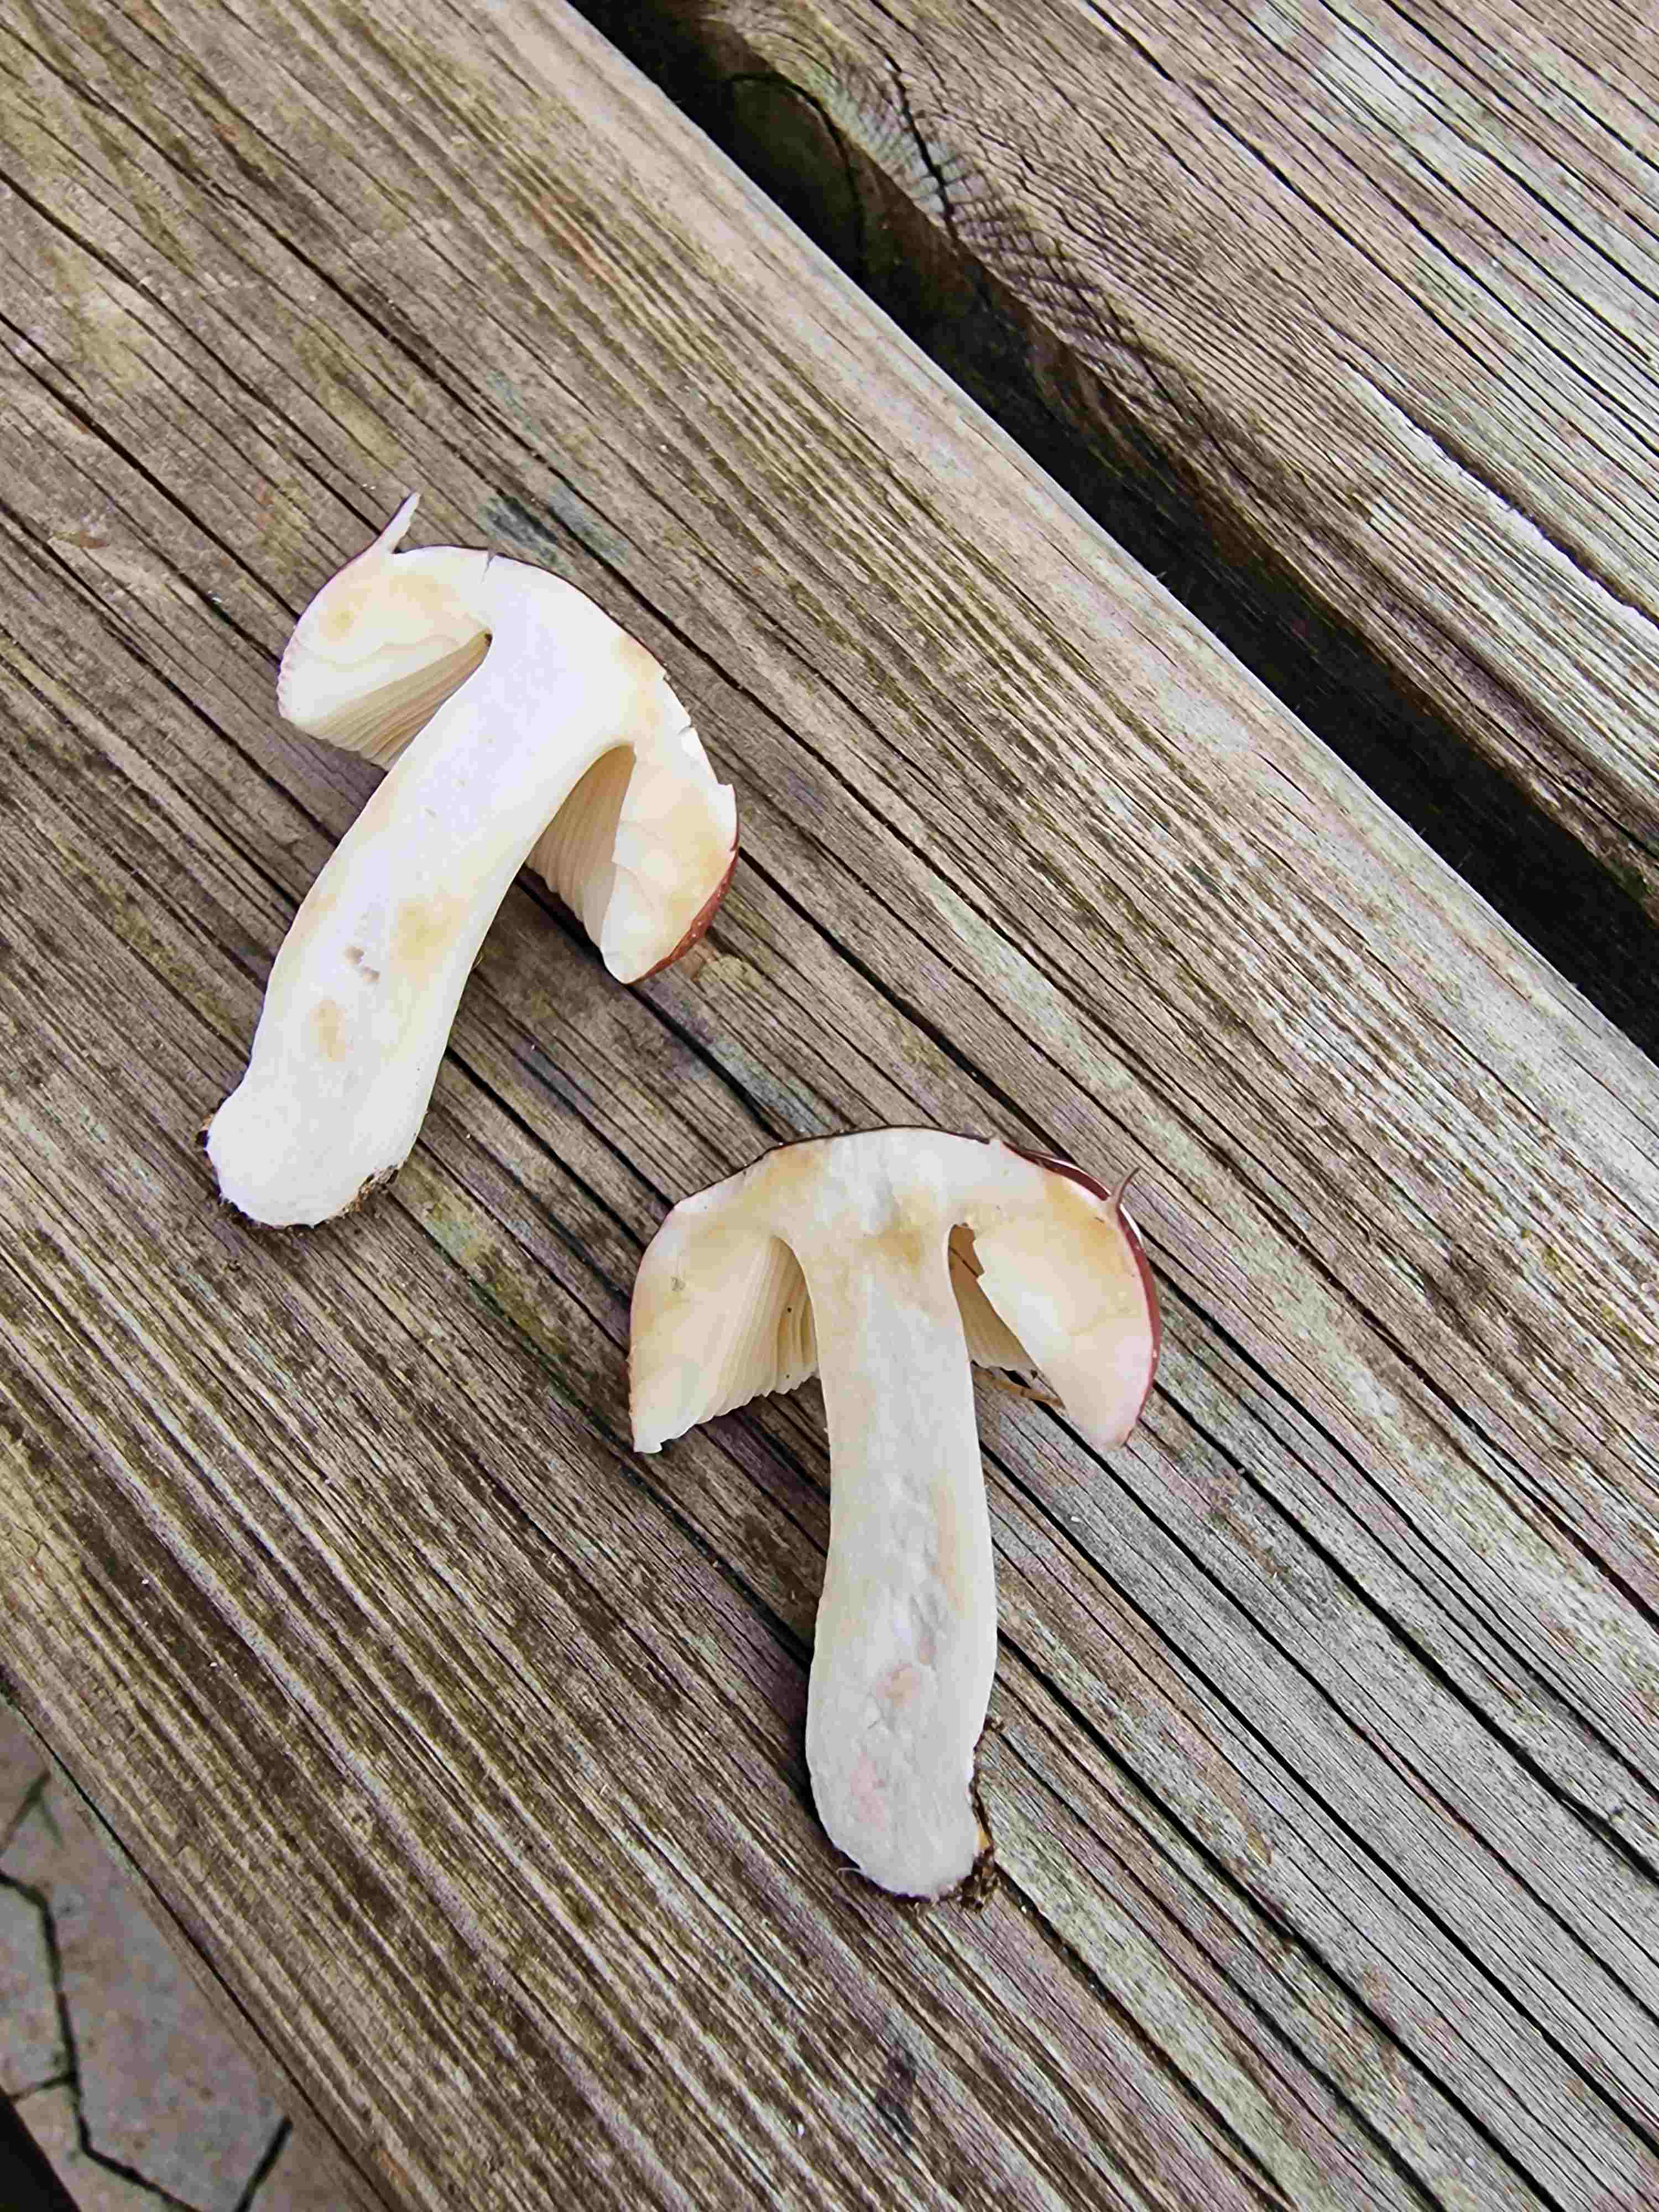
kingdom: Fungi
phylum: Basidiomycota
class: Agaricomycetes
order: Russulales
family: Russulaceae
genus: Russula
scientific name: Russula puellaris
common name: gulstokket skørhat
